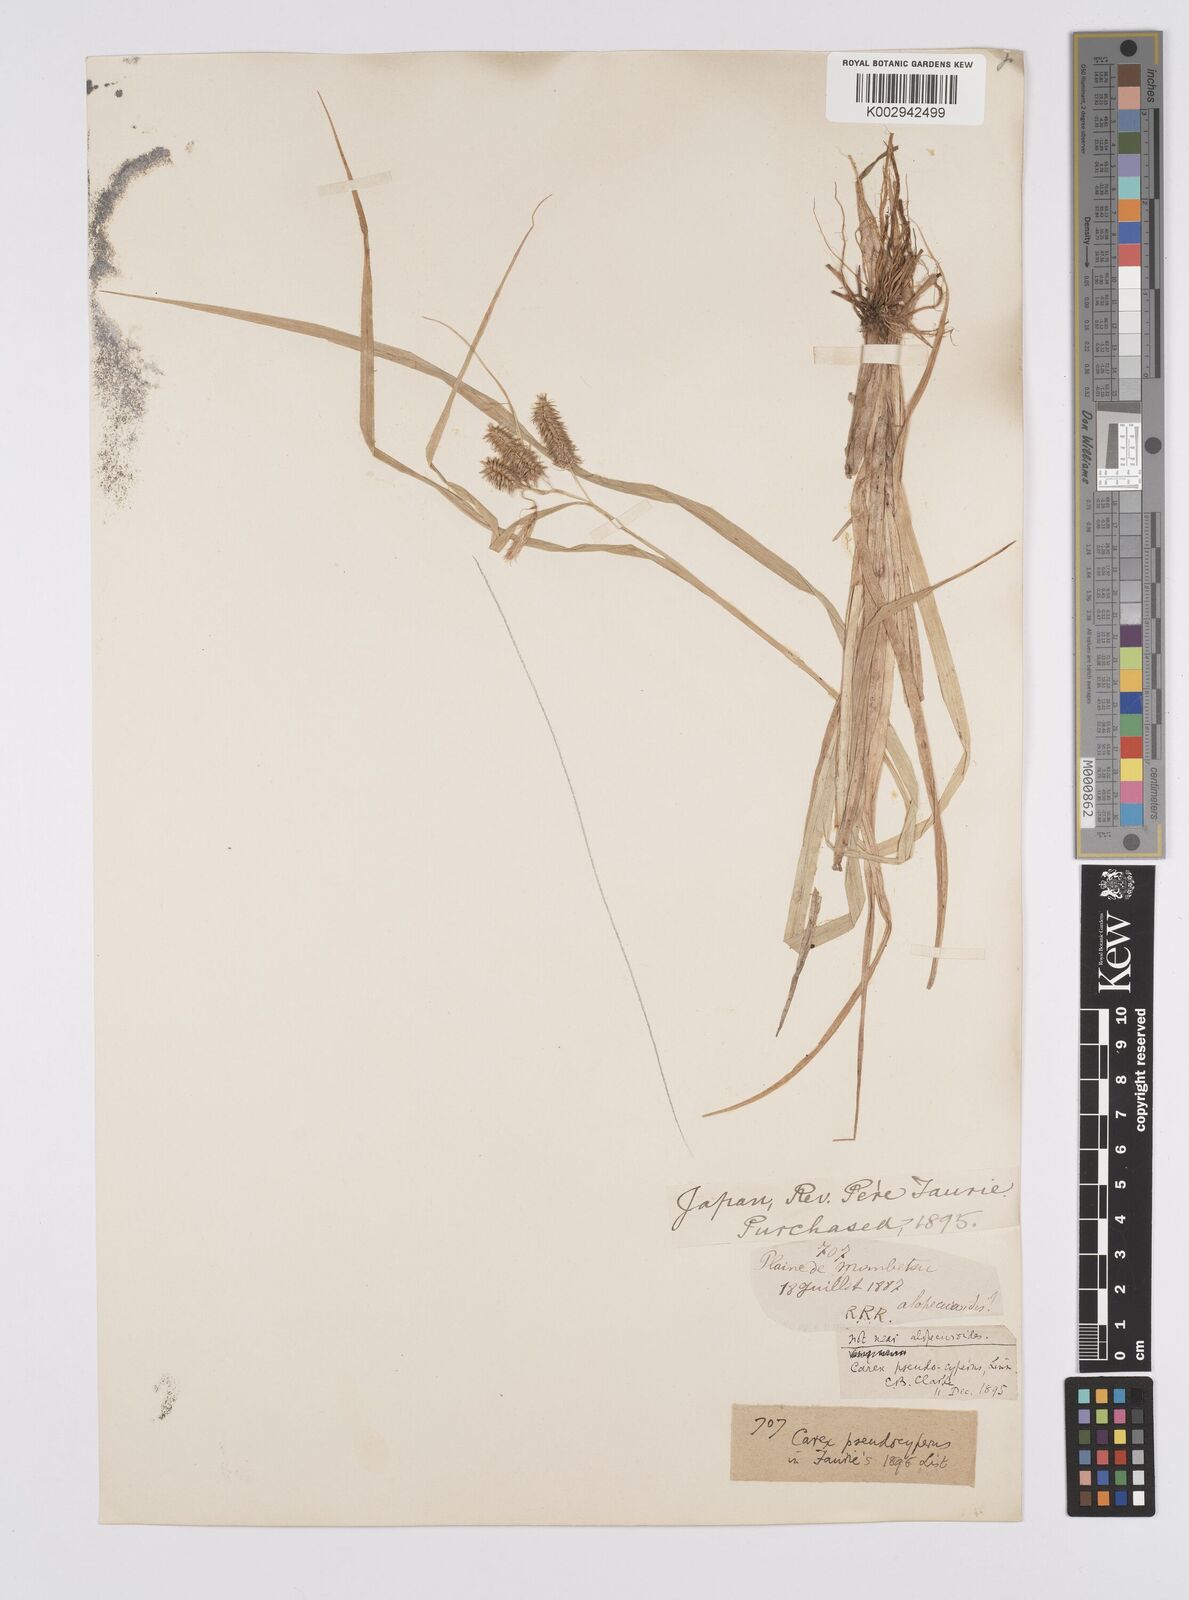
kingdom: Plantae
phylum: Tracheophyta
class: Liliopsida
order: Poales
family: Cyperaceae
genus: Carex
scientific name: Carex pseudocyperus
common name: Cyperus sedge
